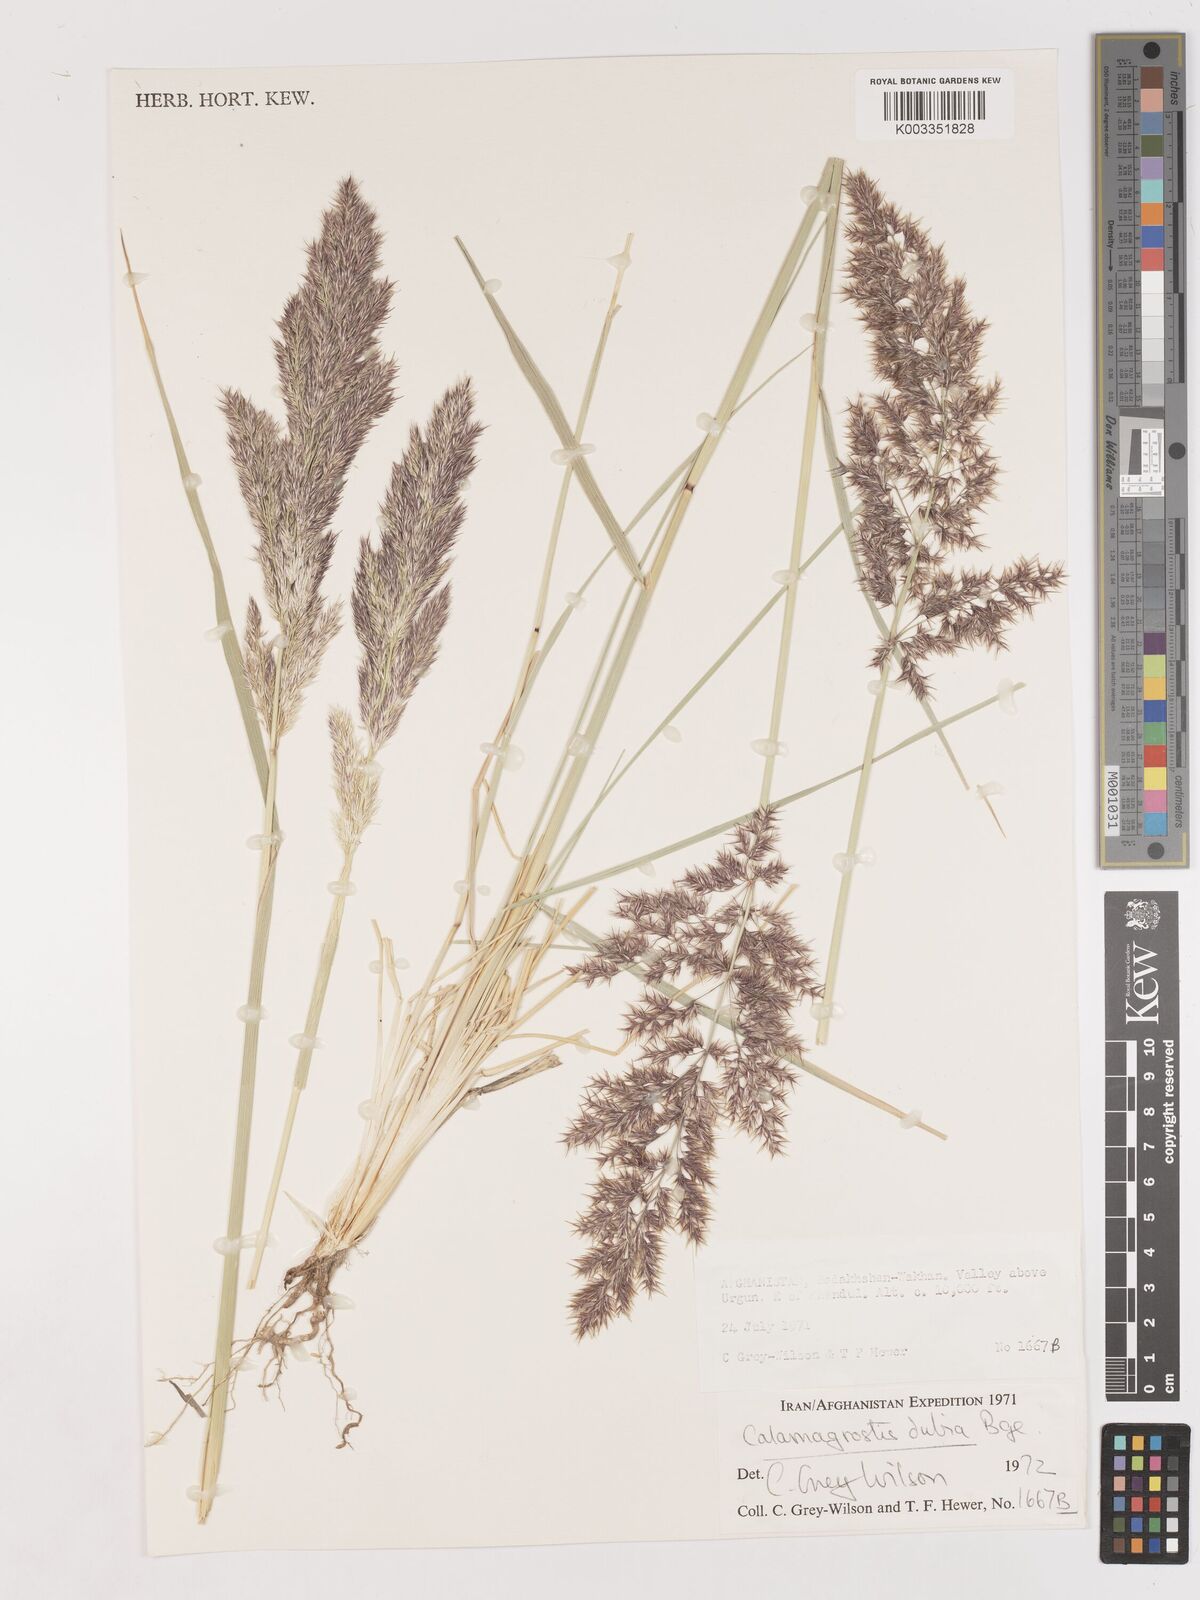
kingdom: Plantae
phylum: Tracheophyta
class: Liliopsida
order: Poales
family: Poaceae
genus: Calamagrostis
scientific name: Calamagrostis pseudophragmites
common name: Coastal small-reed
